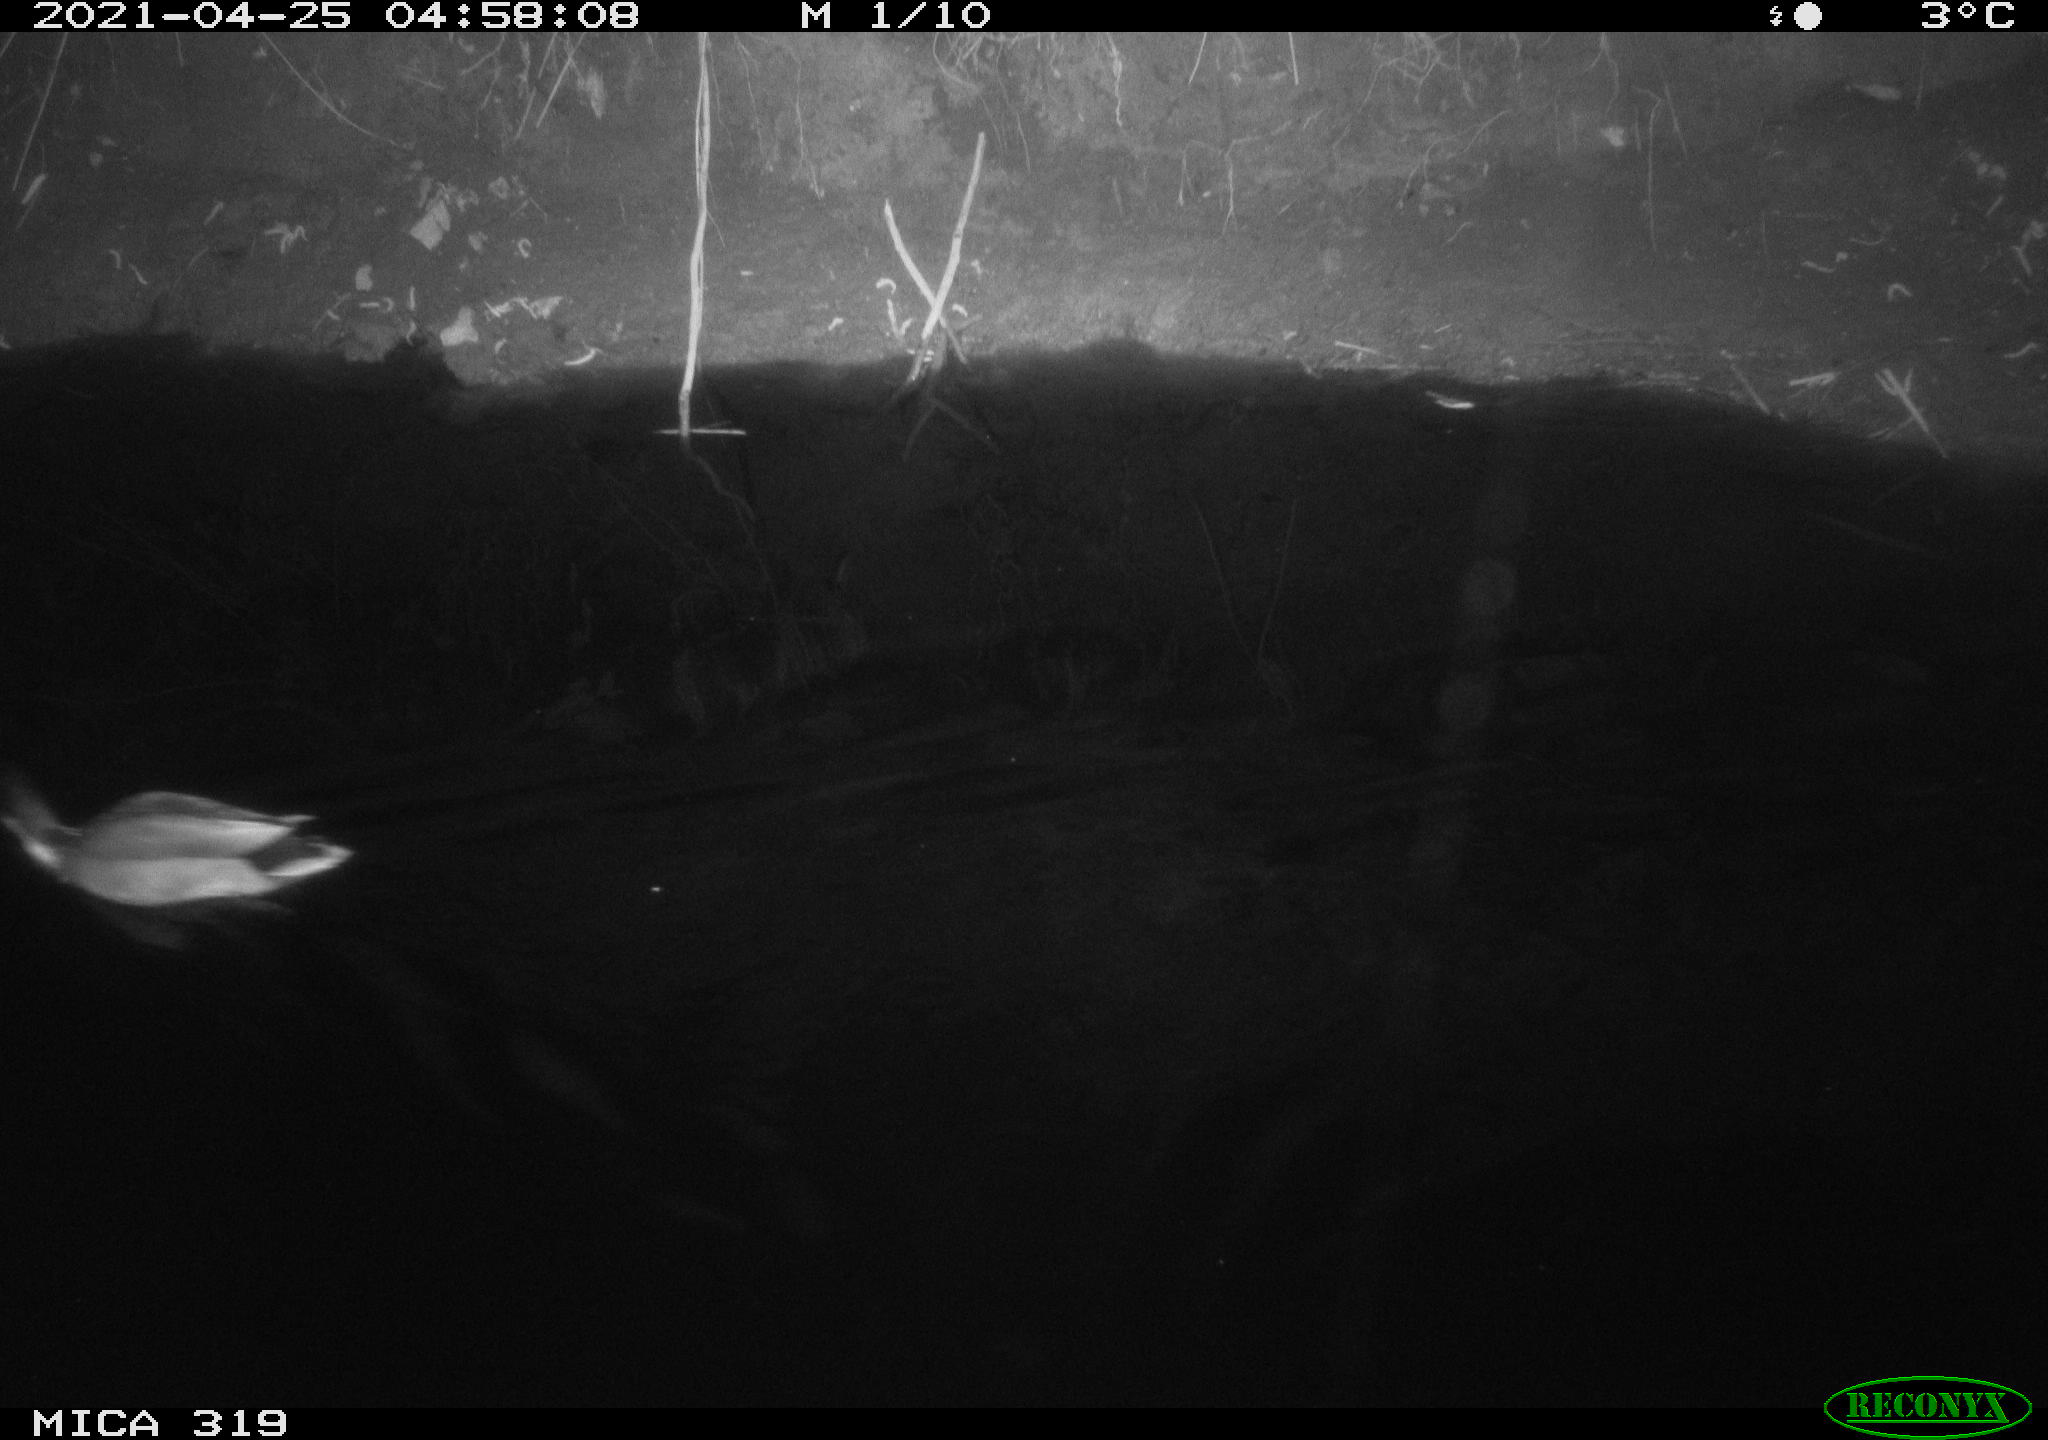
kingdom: Animalia
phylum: Chordata
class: Aves
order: Anseriformes
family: Anatidae
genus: Anas
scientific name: Anas platyrhynchos
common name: Mallard
